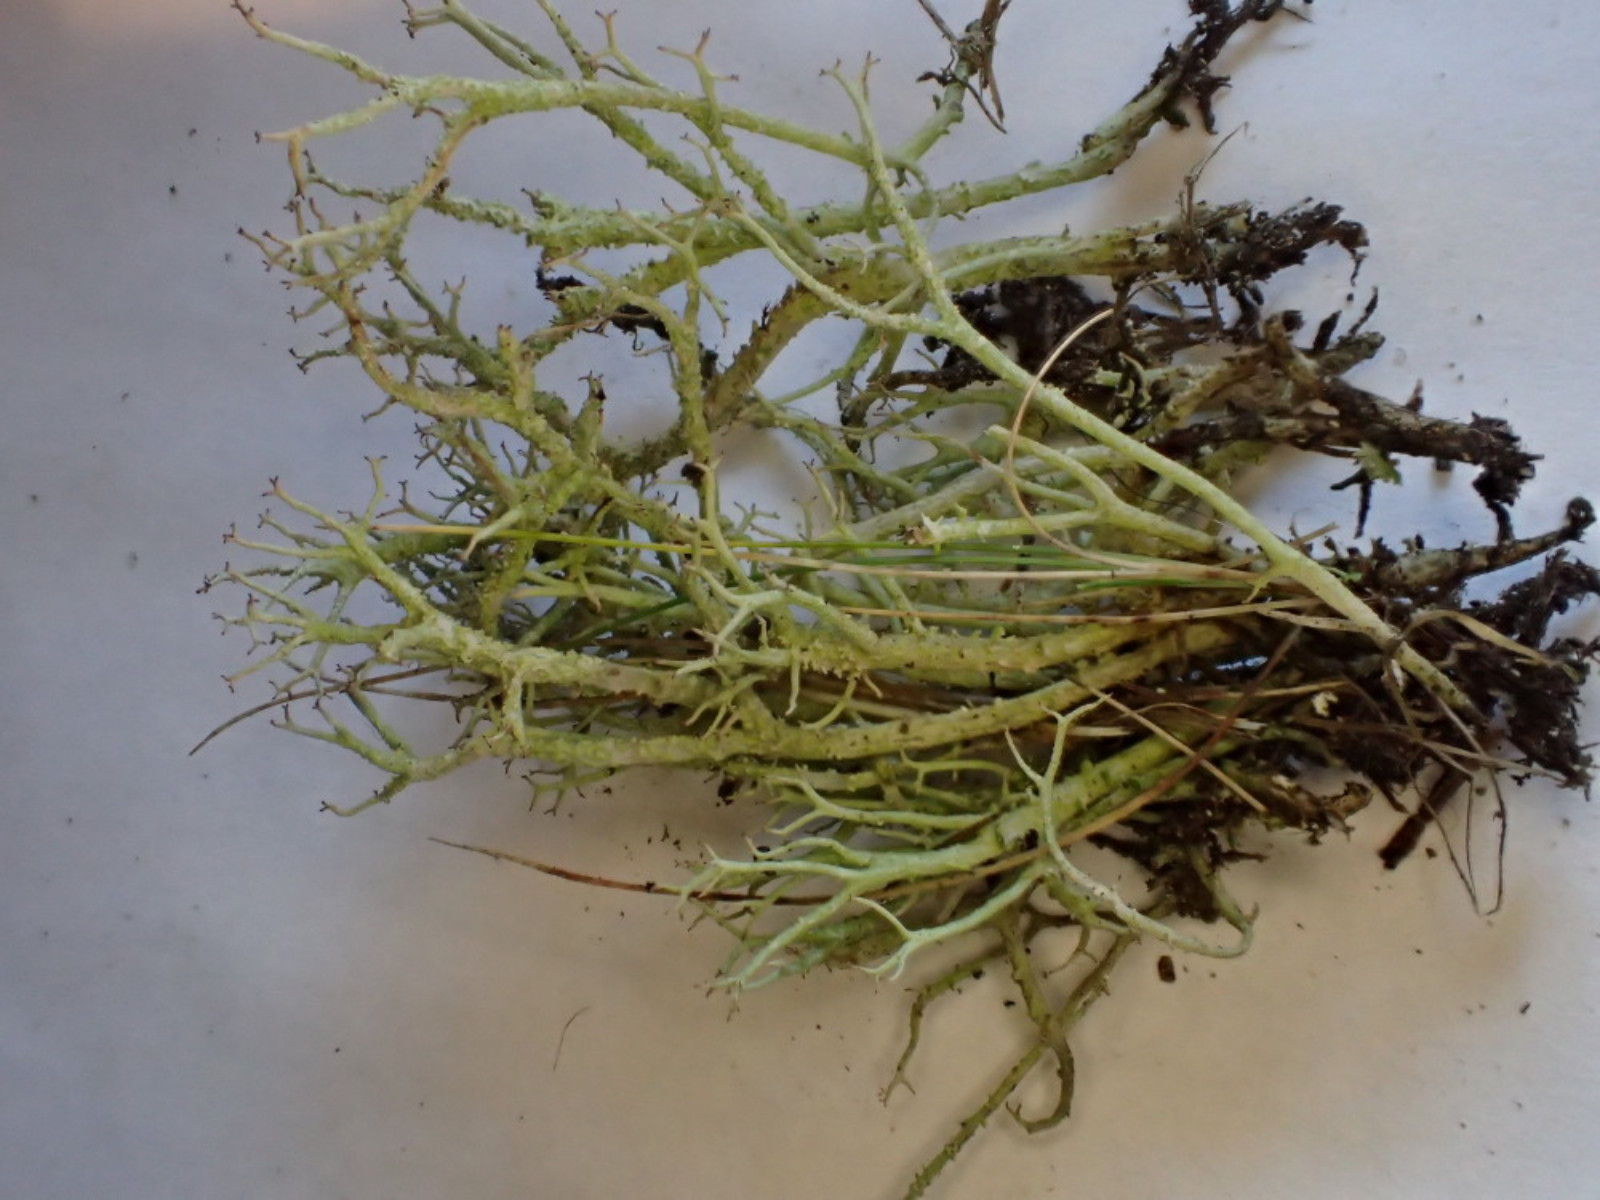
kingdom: Fungi
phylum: Ascomycota
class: Lecanoromycetes
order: Lecanorales
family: Cladoniaceae
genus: Cladonia
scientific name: Cladonia scabriuscula
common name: ru bægerlav
